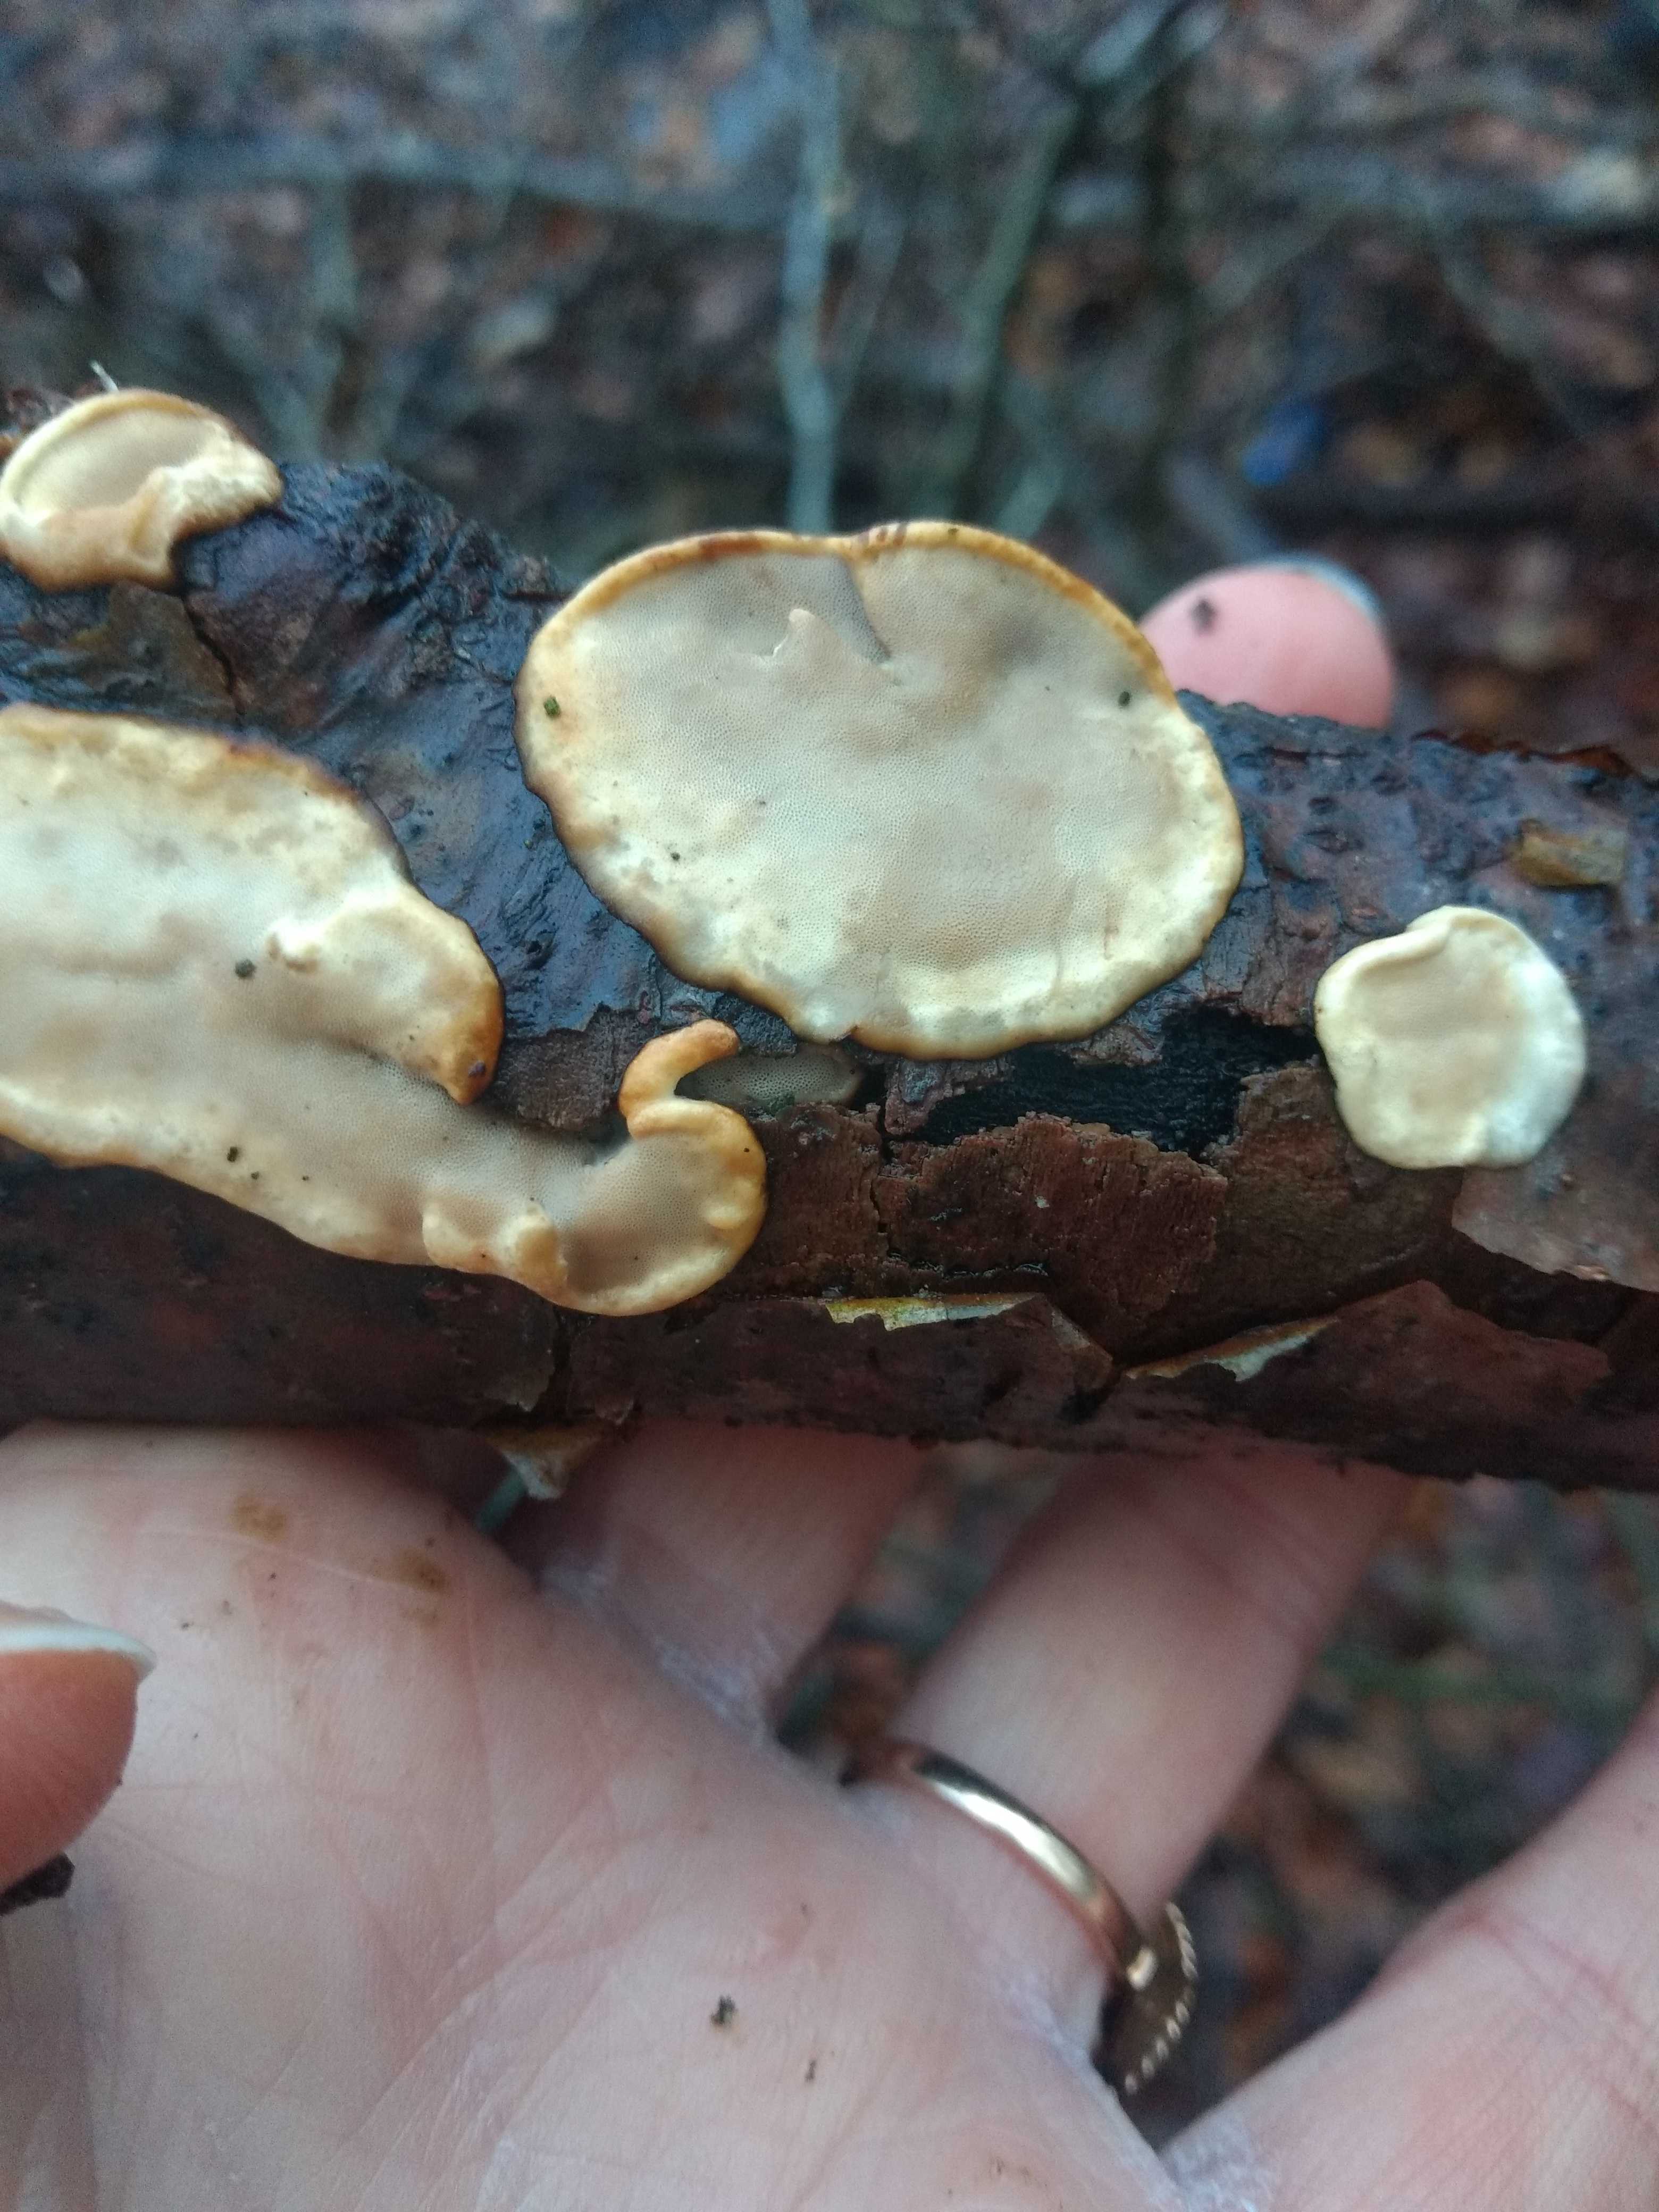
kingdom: Fungi
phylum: Basidiomycota
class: Agaricomycetes
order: Polyporales
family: Incrustoporiaceae
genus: Skeletocutis
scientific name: Skeletocutis nemoralis
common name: stor krystalporesvamp
